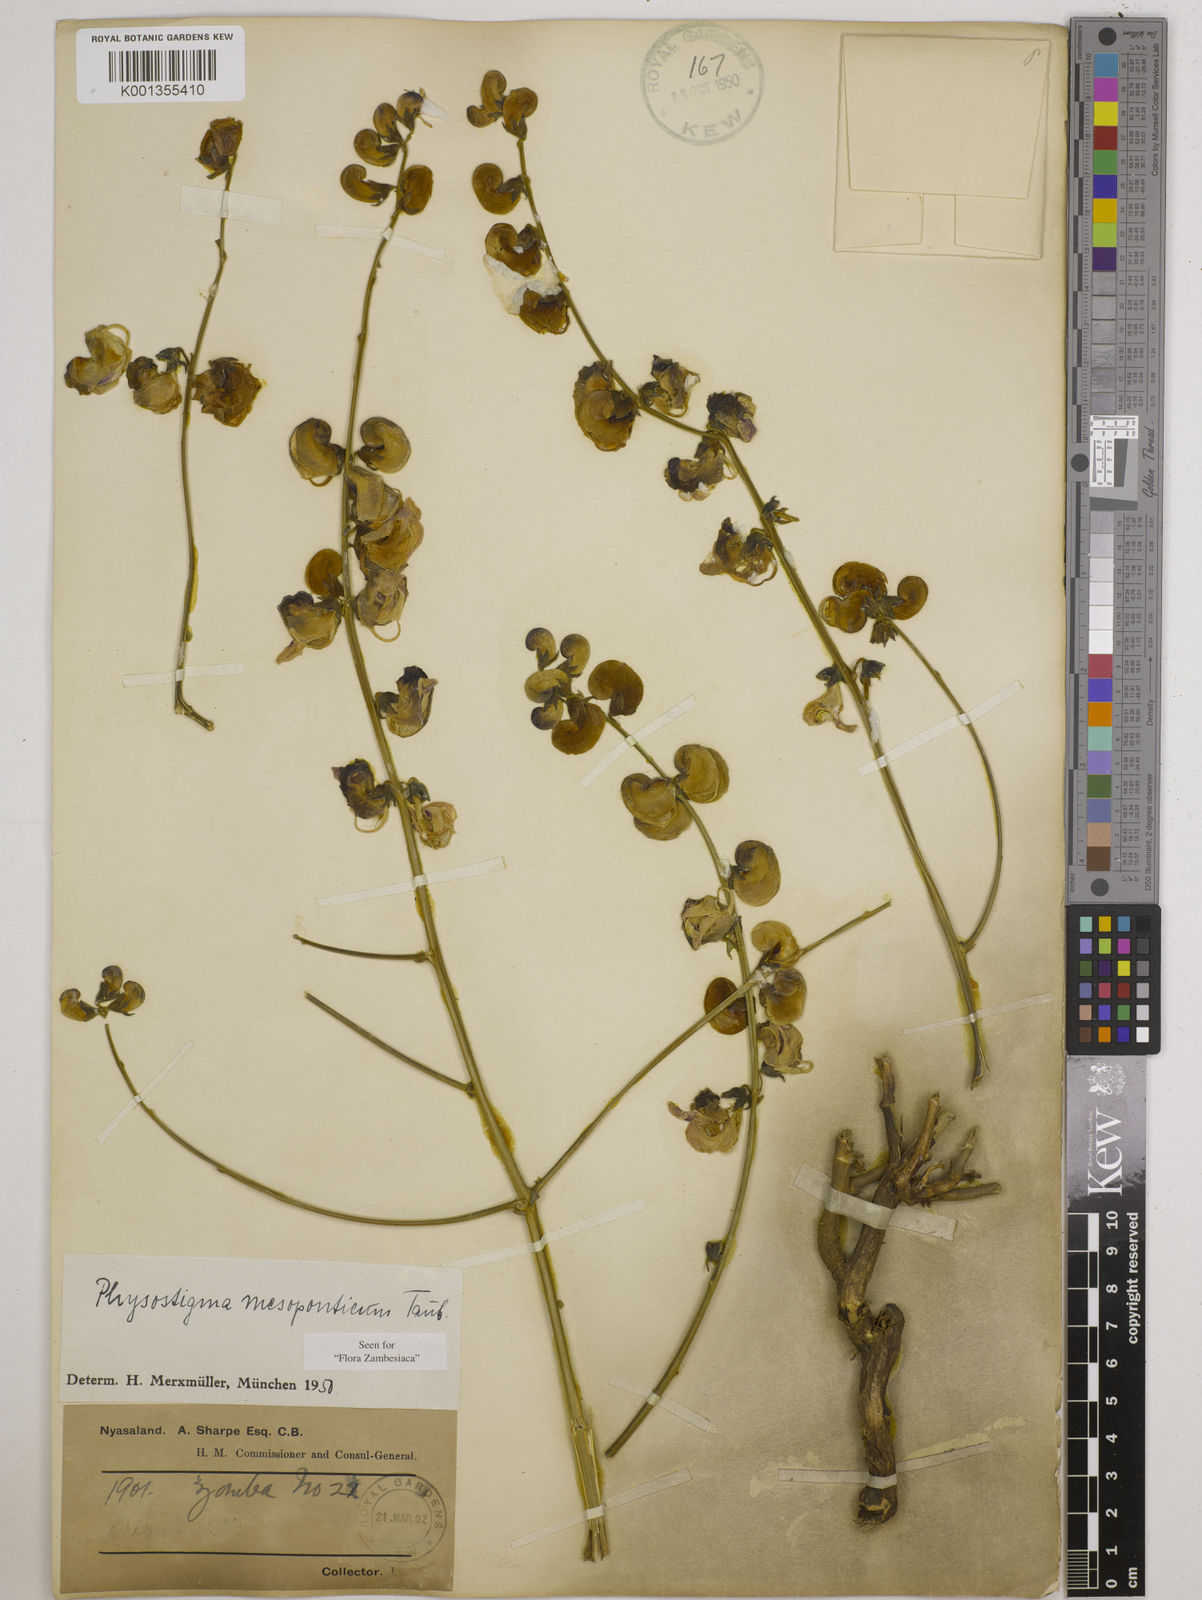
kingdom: Plantae
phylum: Tracheophyta
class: Magnoliopsida
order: Fabales
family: Fabaceae
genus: Physostigma
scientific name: Physostigma mesoponticum
